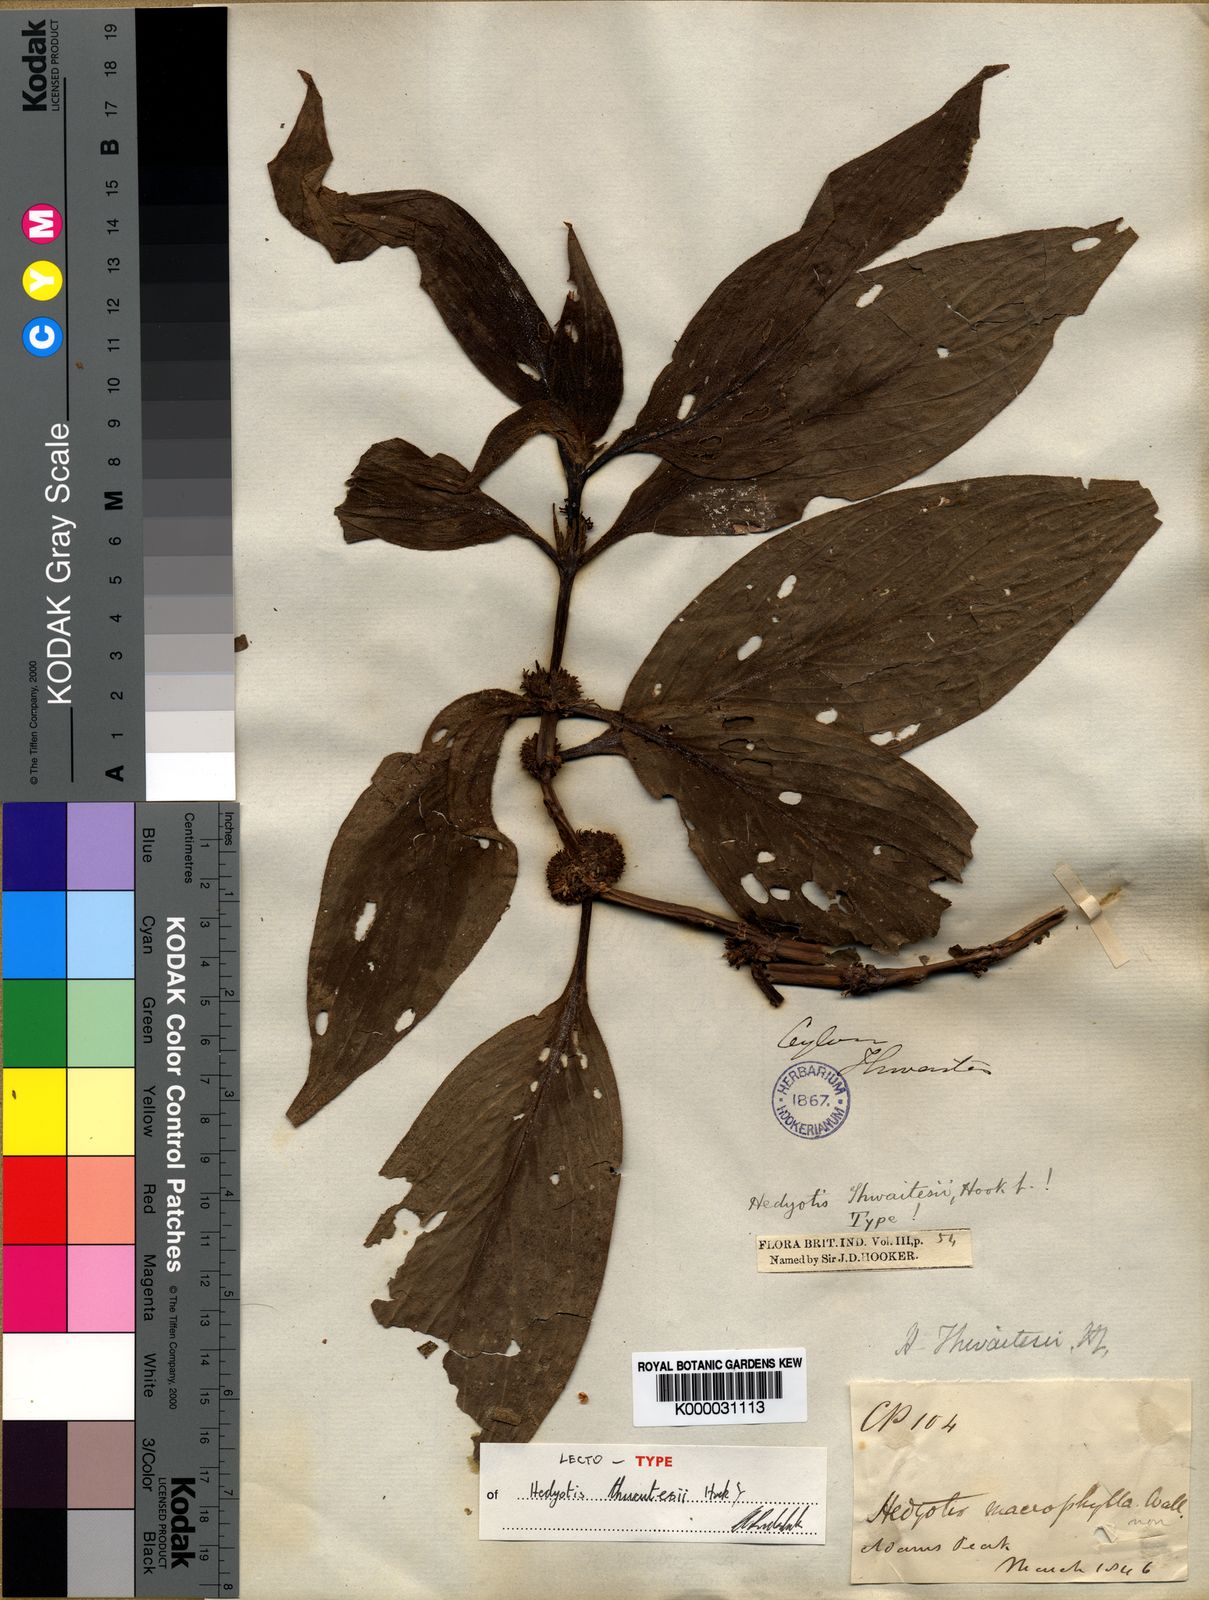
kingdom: Plantae
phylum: Tracheophyta
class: Magnoliopsida
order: Gentianales
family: Rubiaceae
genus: Hedyotis
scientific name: Hedyotis thwaitesii
